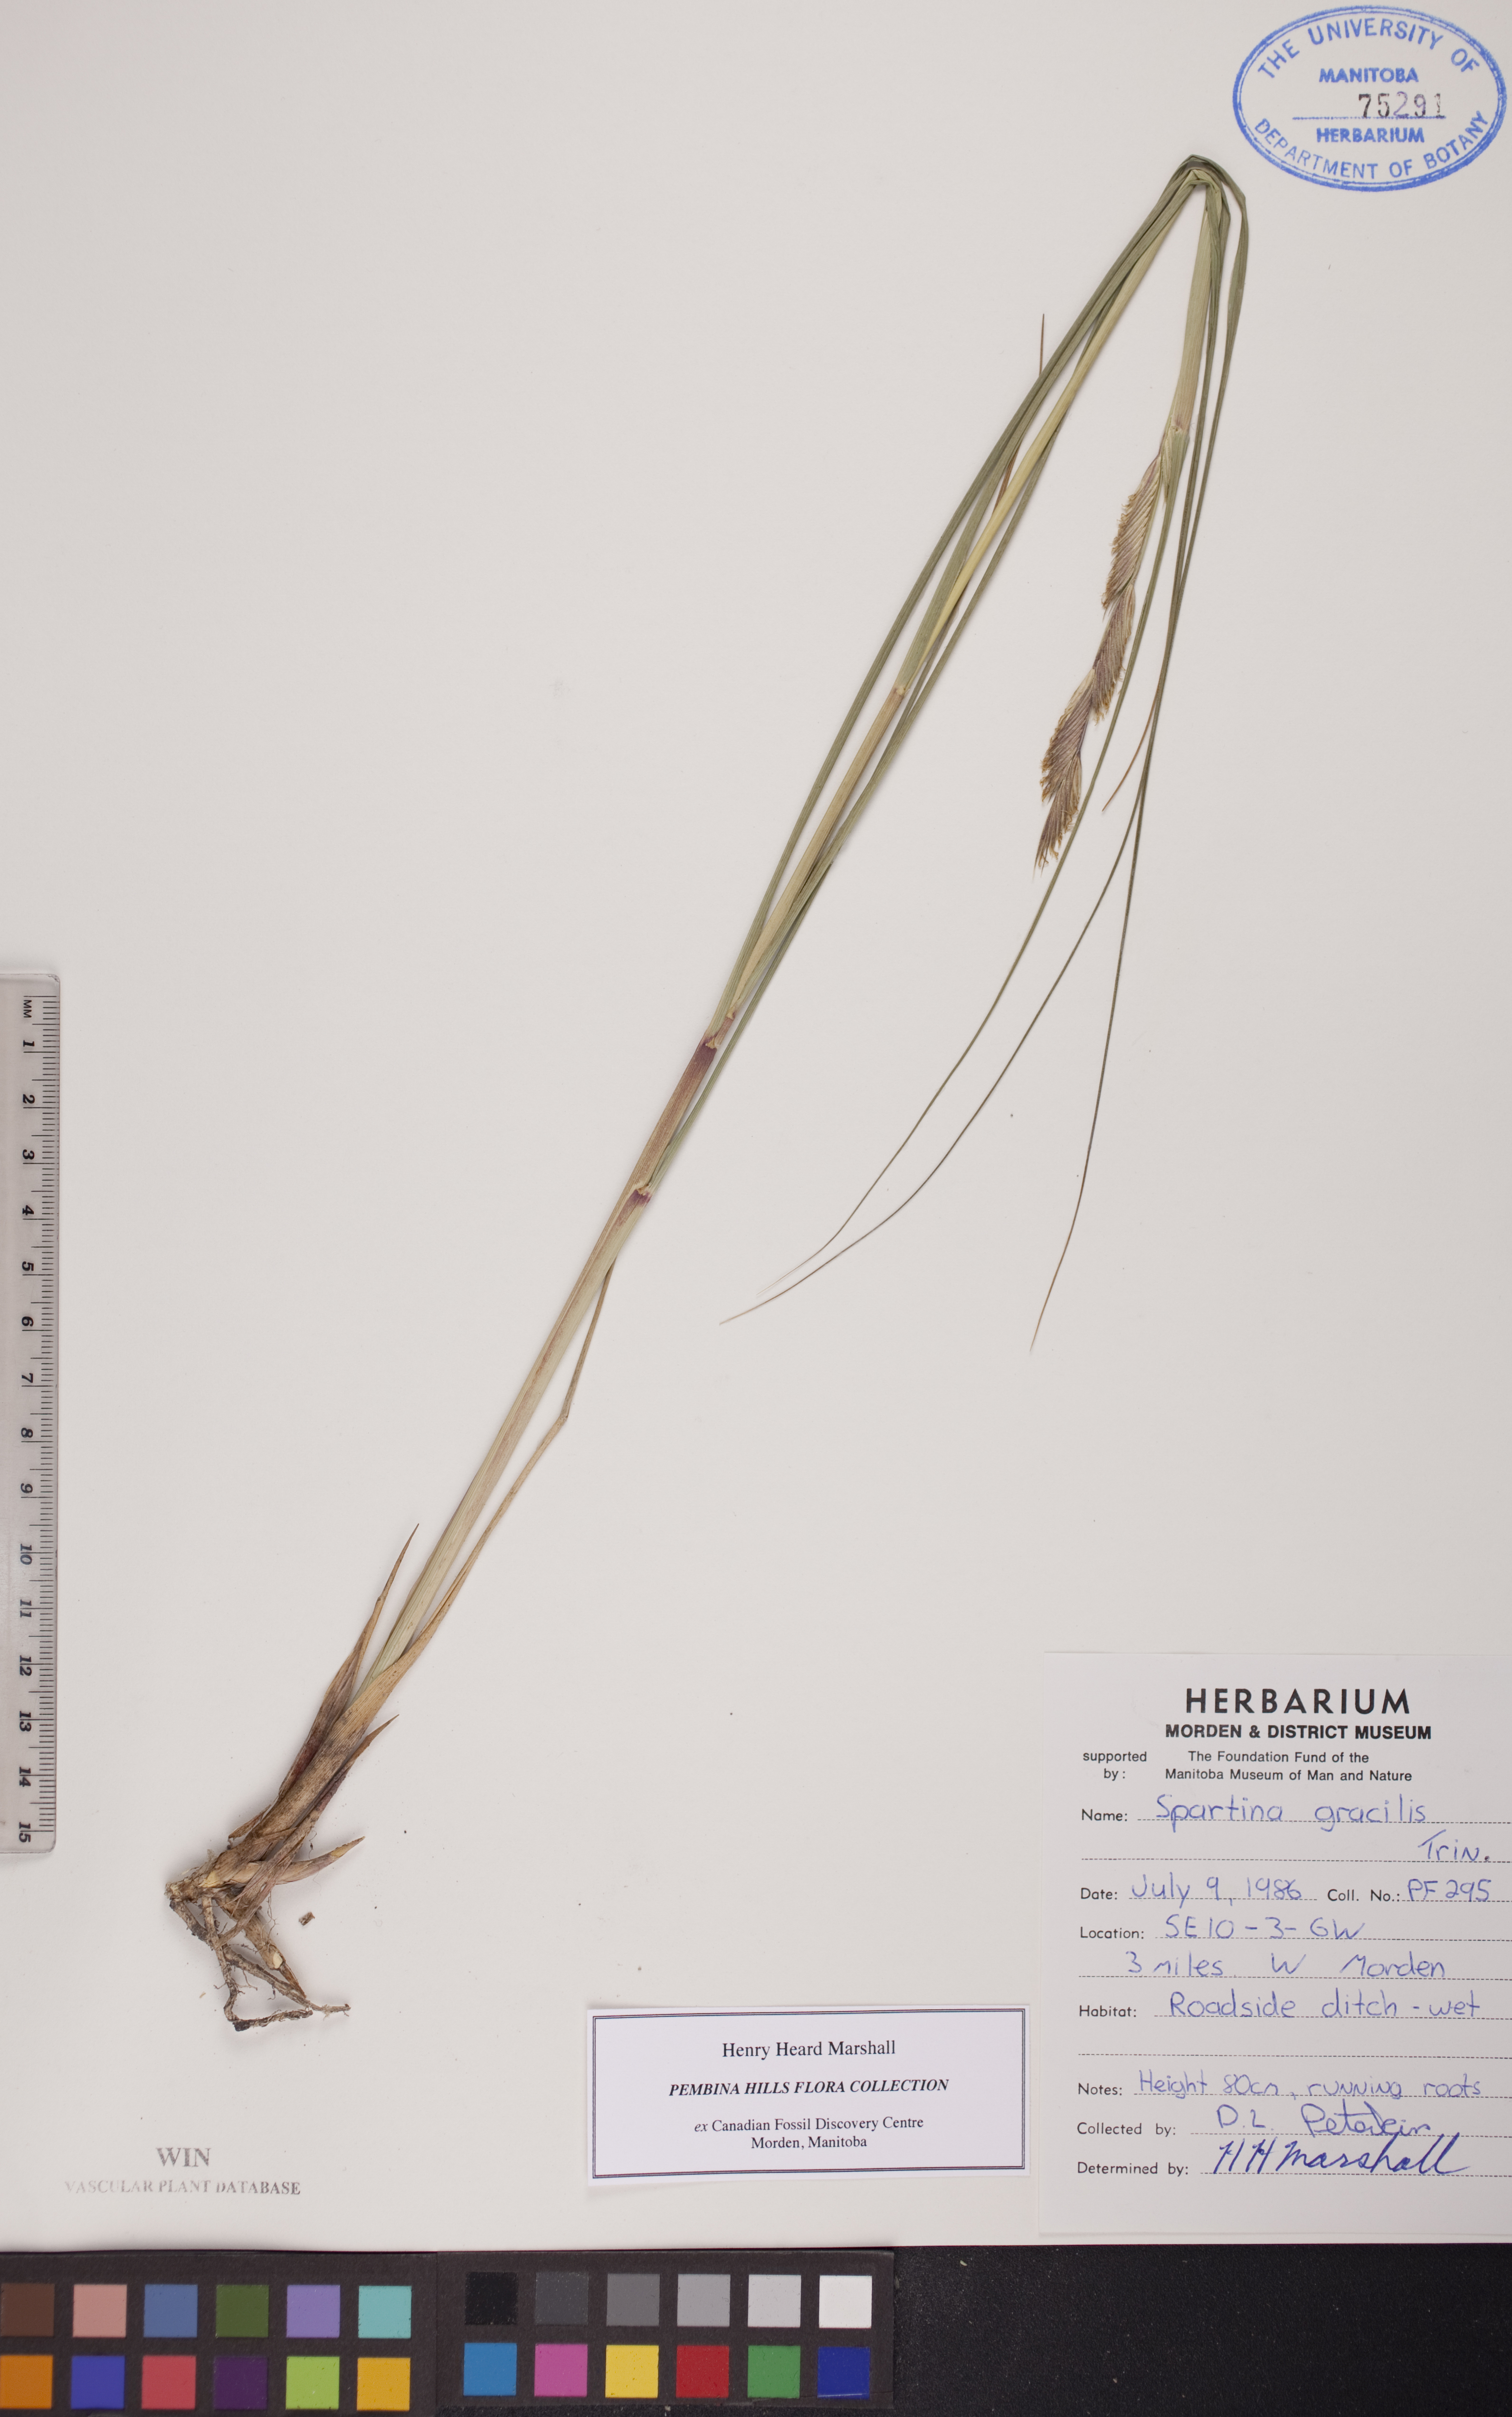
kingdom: Plantae
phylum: Tracheophyta
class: Liliopsida
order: Poales
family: Poaceae
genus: Sporobolus
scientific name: Sporobolus hookerianus
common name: Alkali cordgrass
